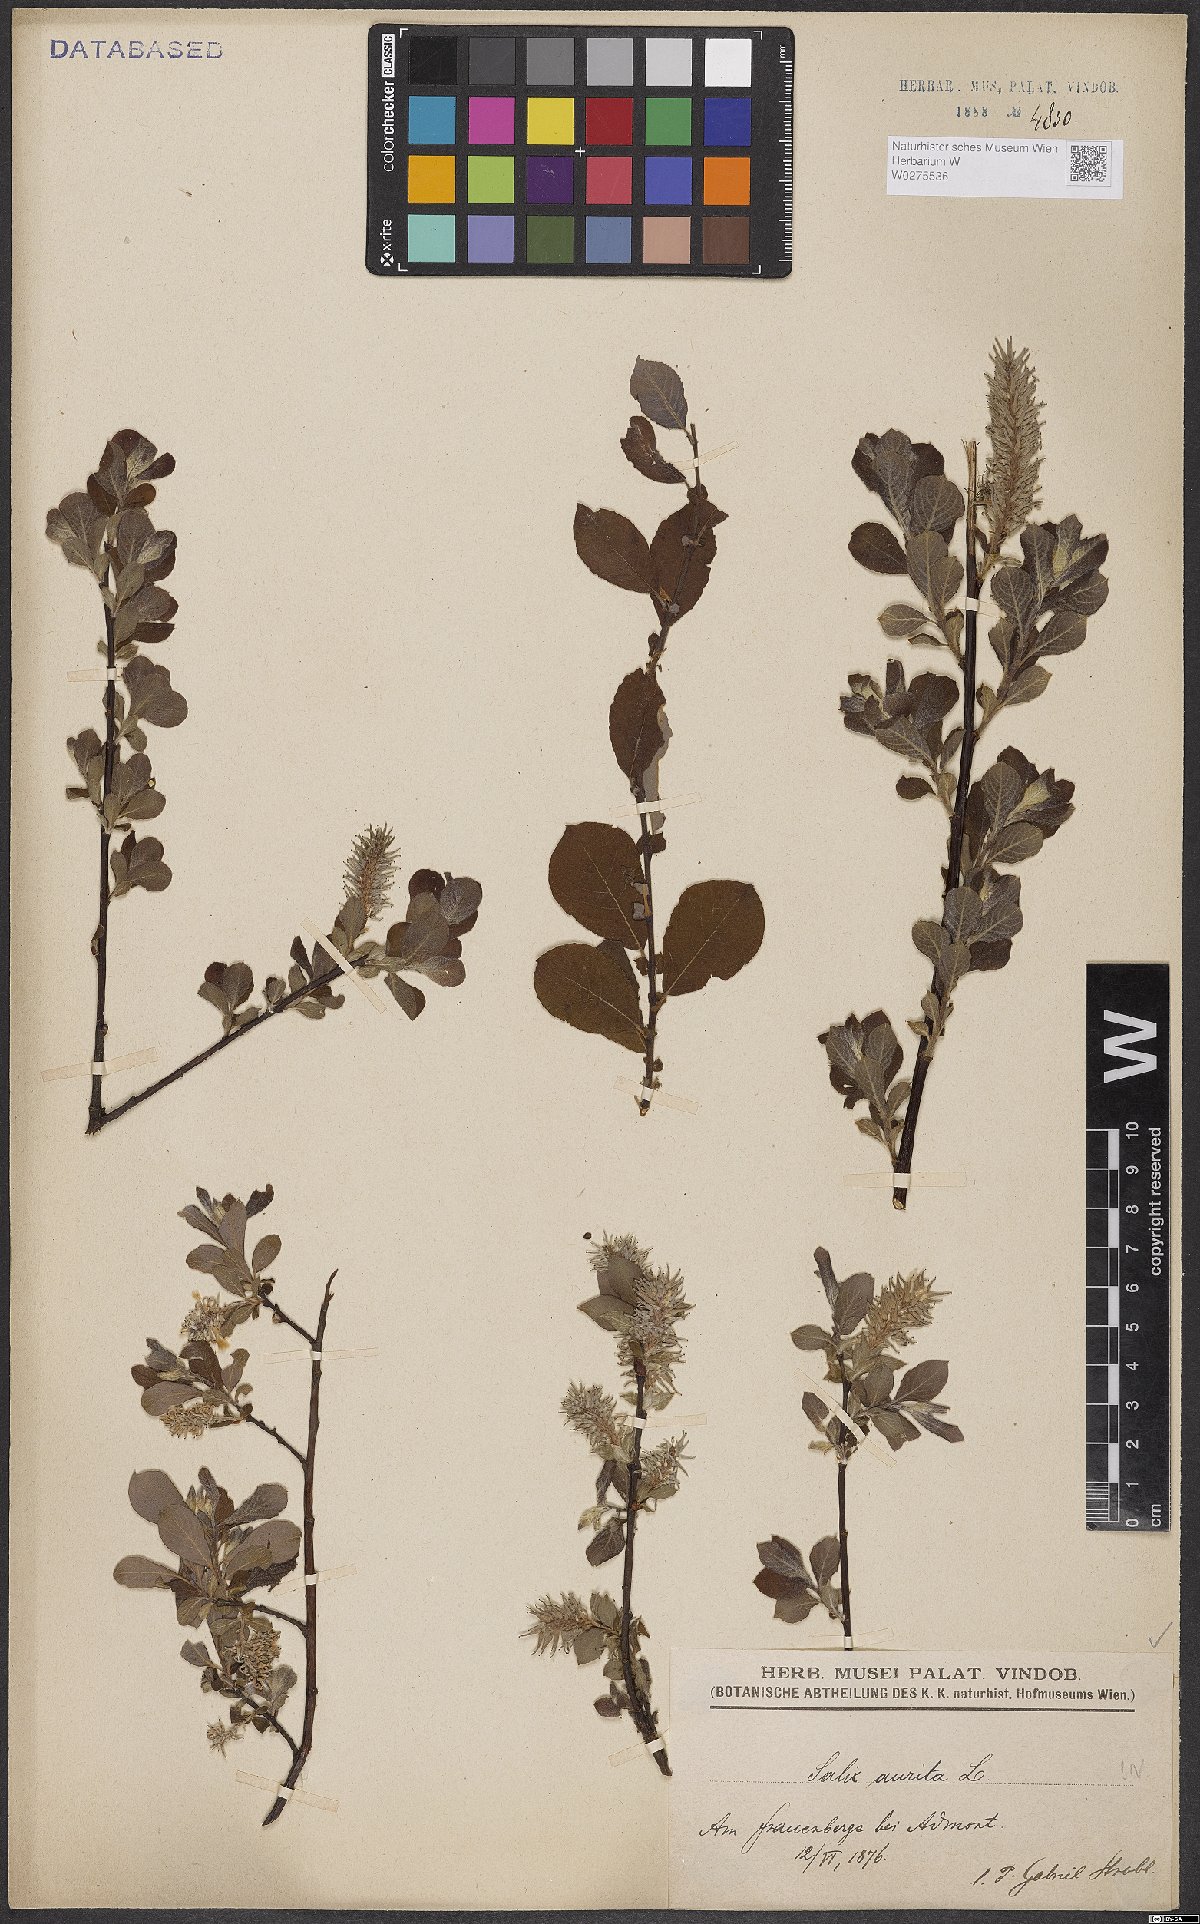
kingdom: Plantae
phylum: Tracheophyta
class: Magnoliopsida
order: Malpighiales
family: Salicaceae
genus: Salix
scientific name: Salix aurita
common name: Eared willow
